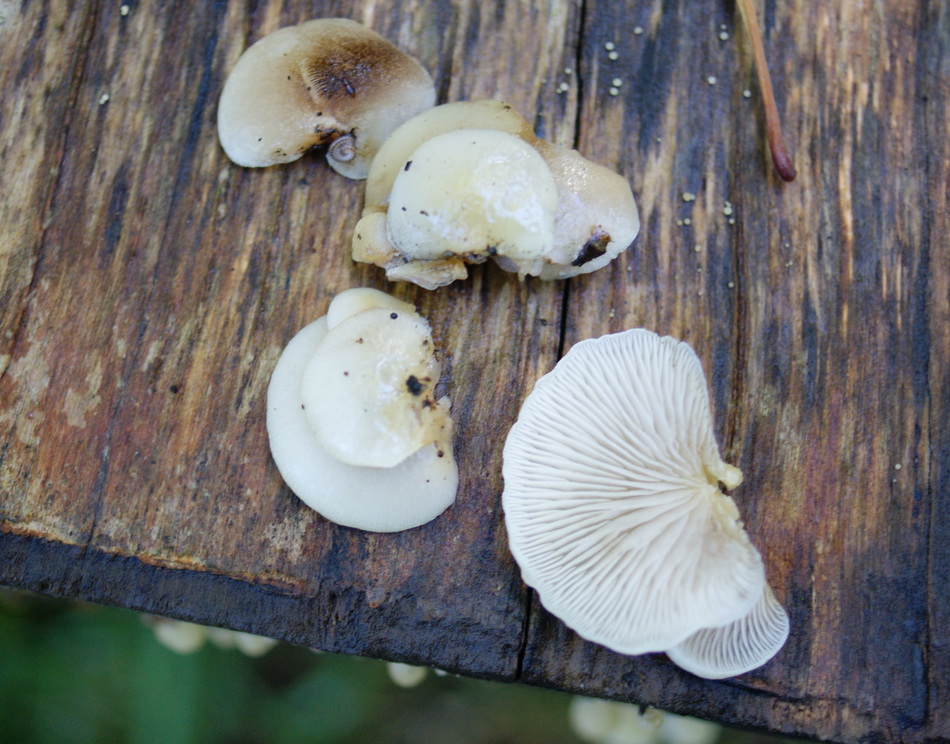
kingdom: Fungi
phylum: Basidiomycota
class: Agaricomycetes
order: Agaricales
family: Crepidotaceae
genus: Crepidotus
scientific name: Crepidotus mollis
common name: blød muslingesvamp
